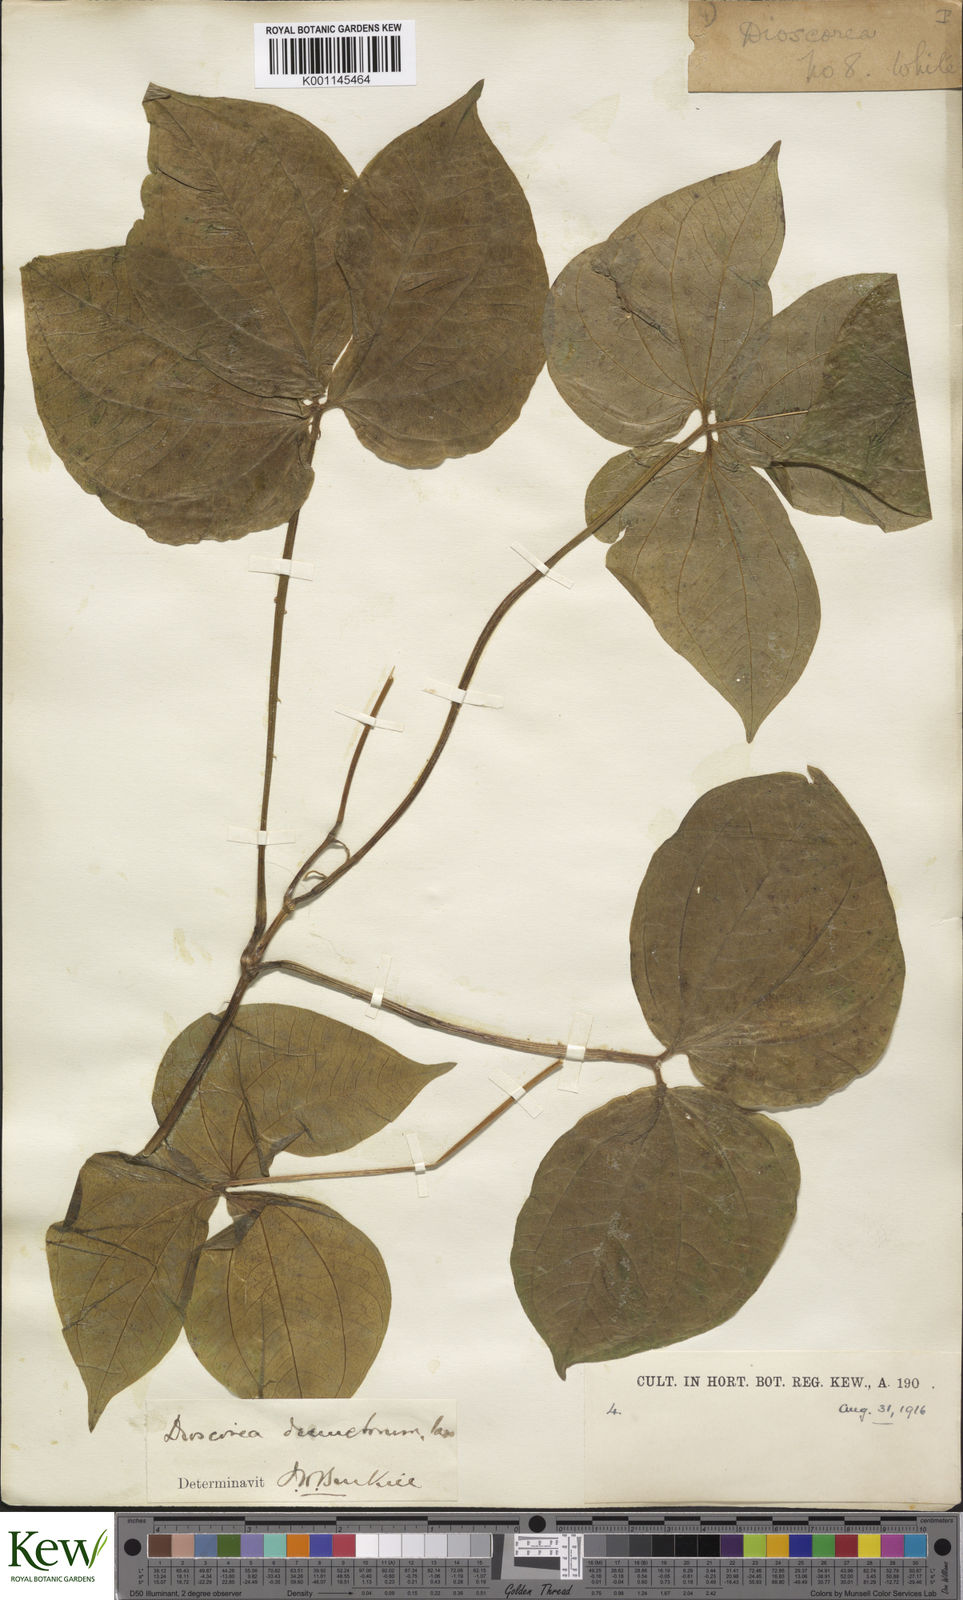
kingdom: Plantae
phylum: Tracheophyta
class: Liliopsida
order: Dioscoreales
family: Dioscoreaceae
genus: Dioscorea
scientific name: Dioscorea dumetorum
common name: African bitter yam
